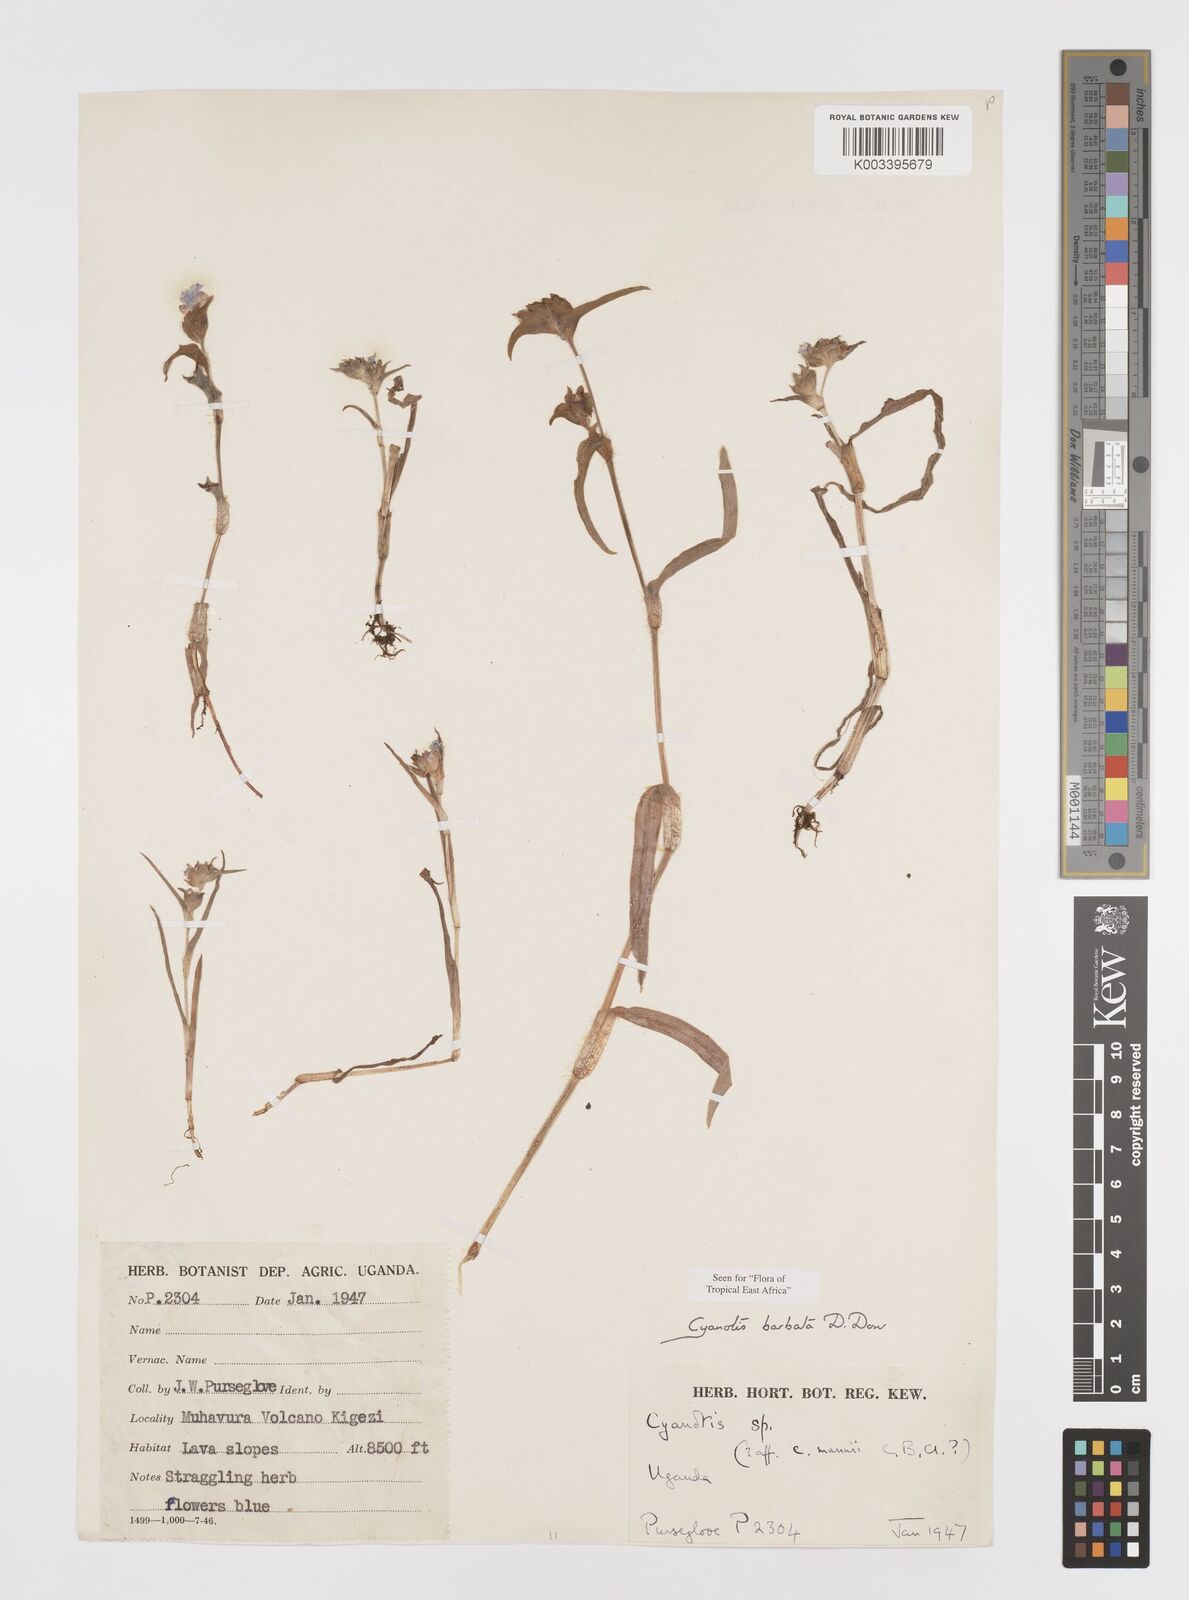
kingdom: Plantae
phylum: Tracheophyta
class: Liliopsida
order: Commelinales
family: Commelinaceae
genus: Cyanotis
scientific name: Cyanotis vaga
